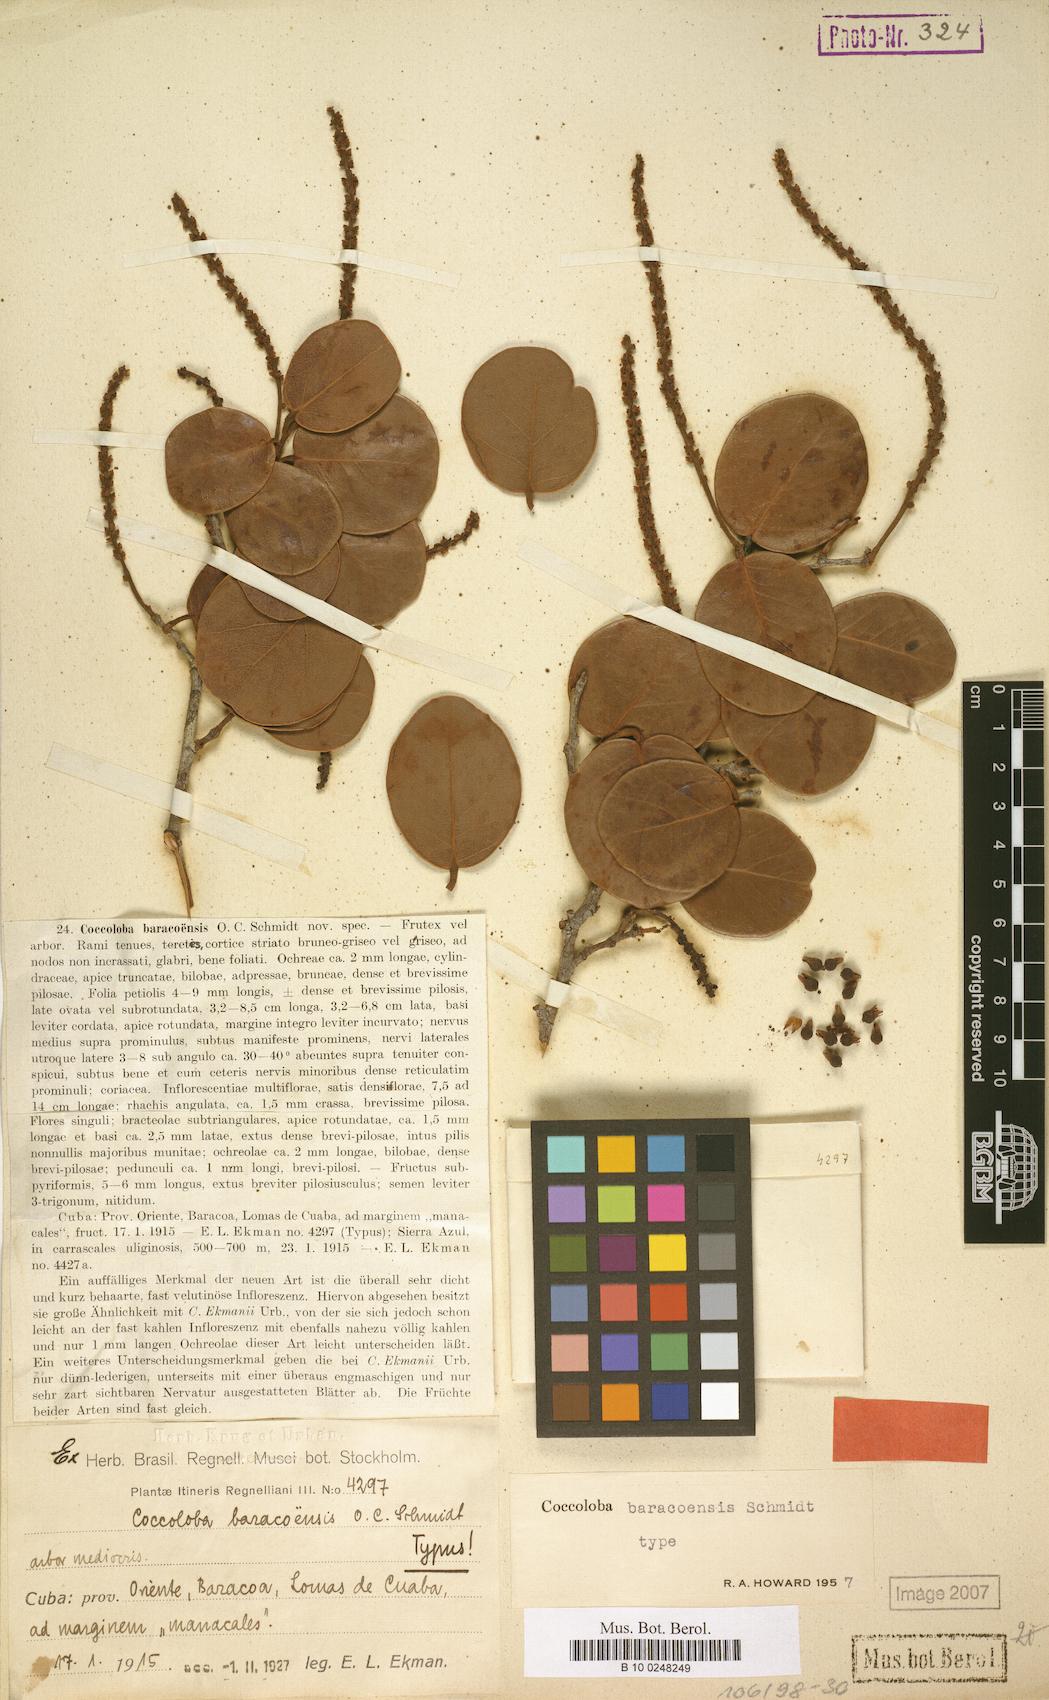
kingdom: Plantae
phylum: Tracheophyta
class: Magnoliopsida
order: Caryophyllales
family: Polygonaceae
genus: Coccoloba
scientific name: Coccoloba baracoensis
